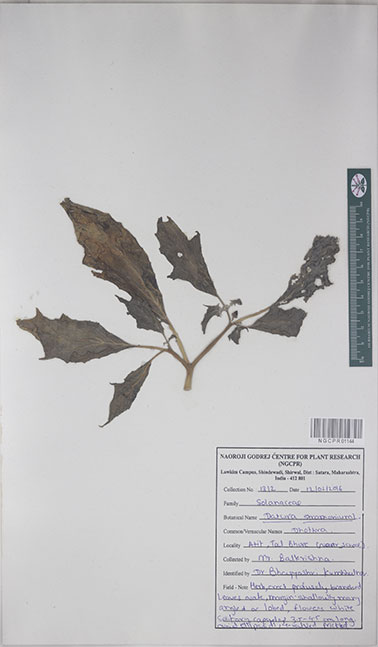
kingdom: Plantae
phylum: Tracheophyta
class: Magnoliopsida
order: Solanales
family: Solanaceae
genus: Datura
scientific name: Datura stramonium
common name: Thorn-apple
